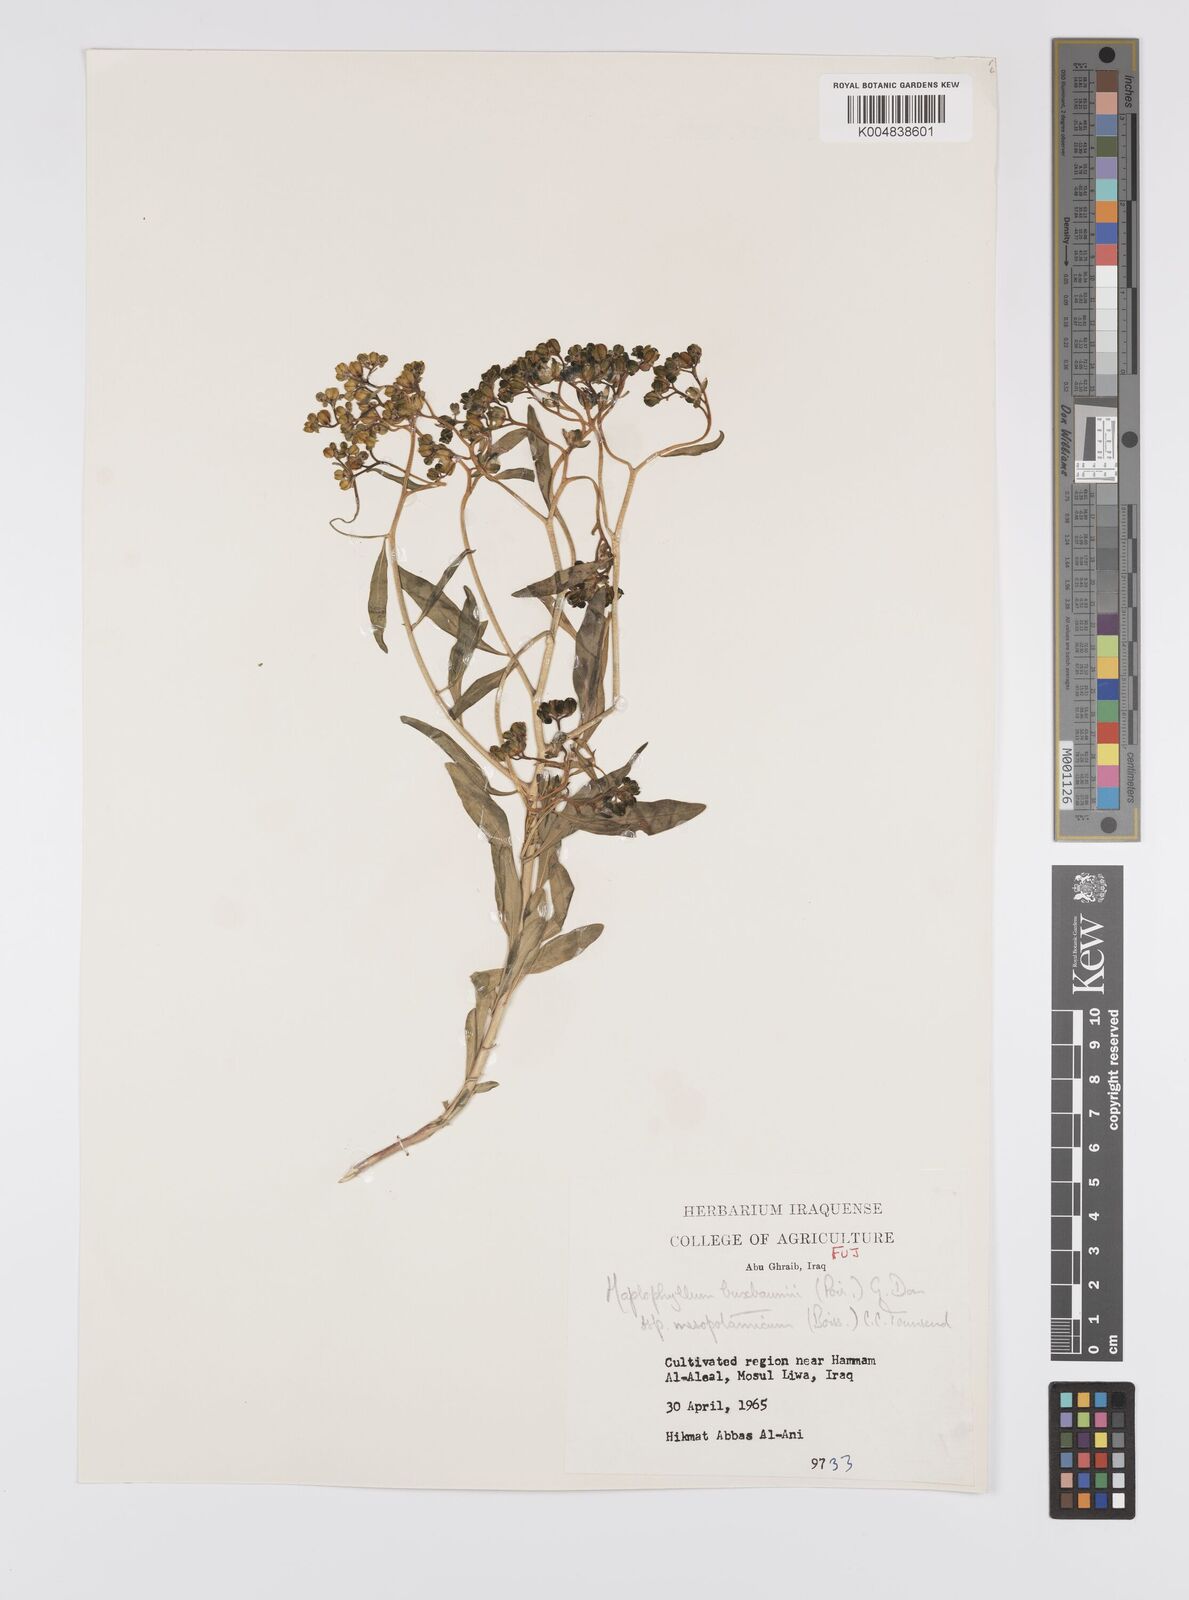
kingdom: Plantae
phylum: Tracheophyta
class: Magnoliopsida
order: Sapindales
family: Rutaceae
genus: Haplophyllum
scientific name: Haplophyllum buxbaumii
